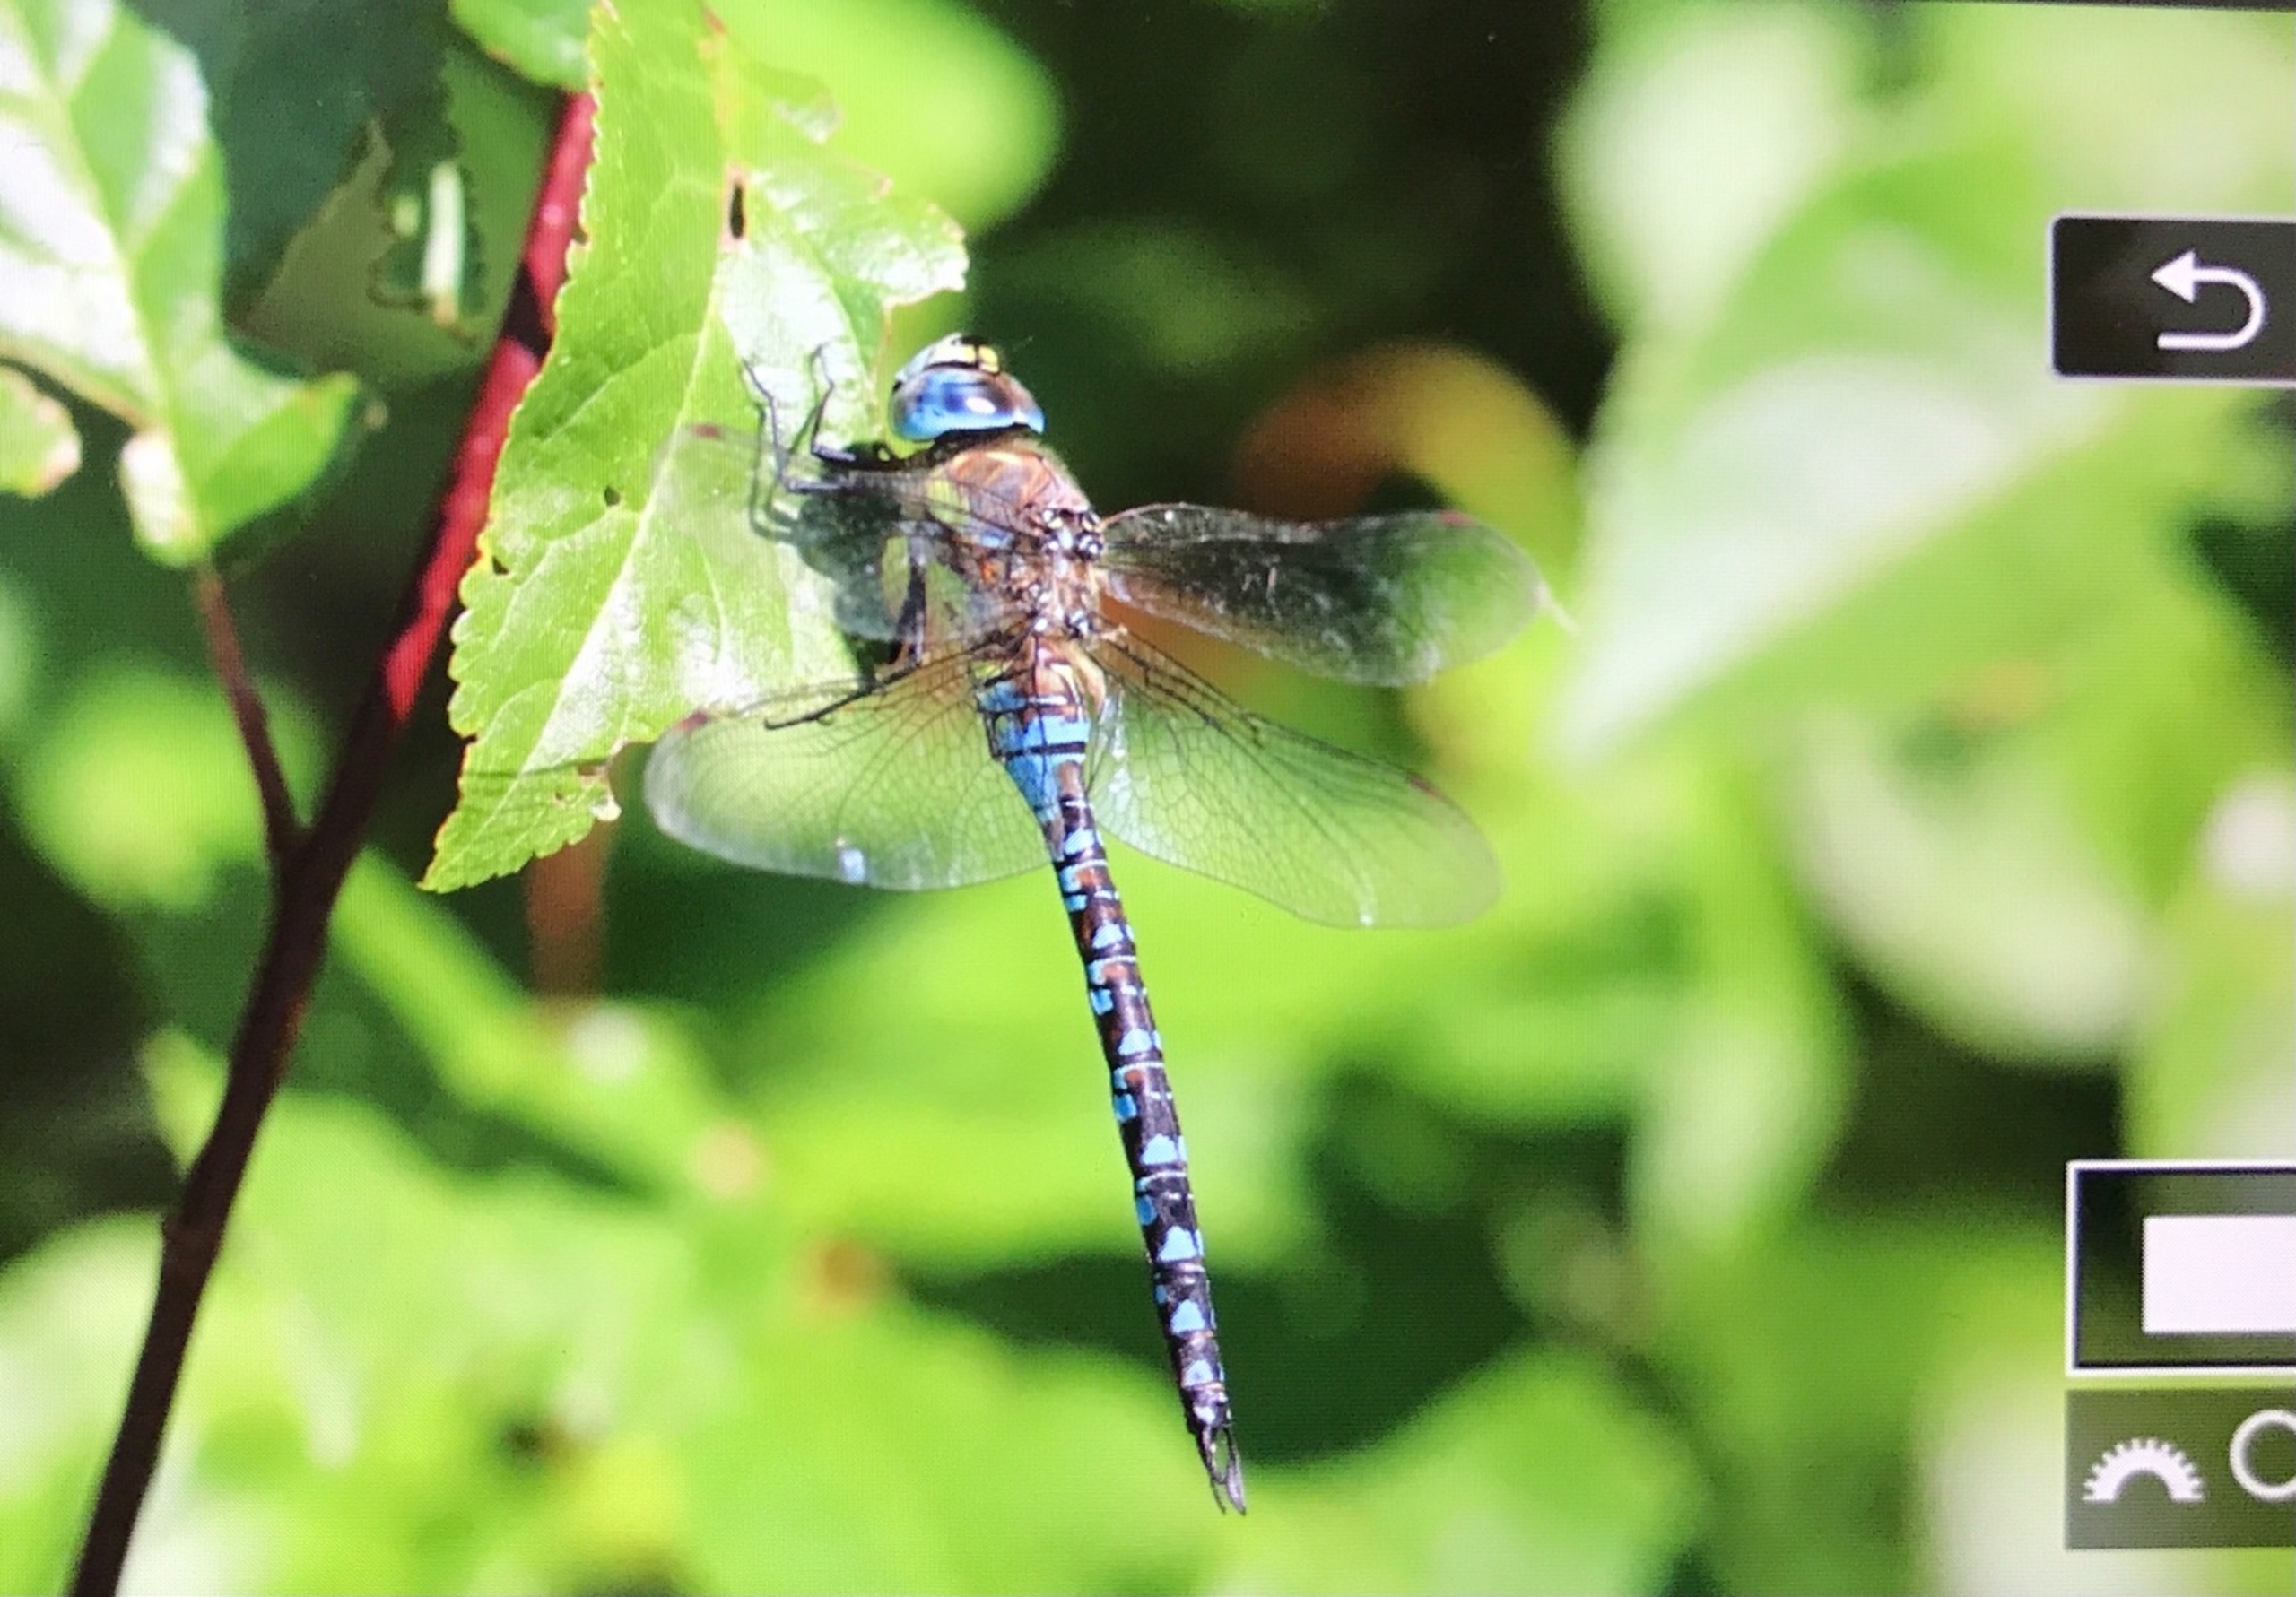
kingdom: Animalia
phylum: Arthropoda
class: Insecta
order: Odonata
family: Aeshnidae
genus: Aeshna
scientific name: Aeshna mixta
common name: Efterårs-mosaikguldsmed
